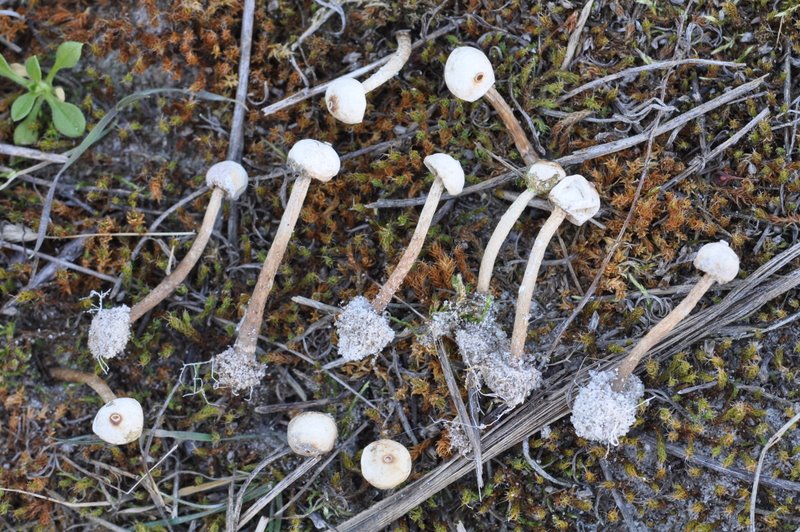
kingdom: Fungi
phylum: Basidiomycota
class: Agaricomycetes
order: Agaricales
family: Agaricaceae
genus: Tulostoma
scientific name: Tulostoma brumale
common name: vinter-stilkbovist
